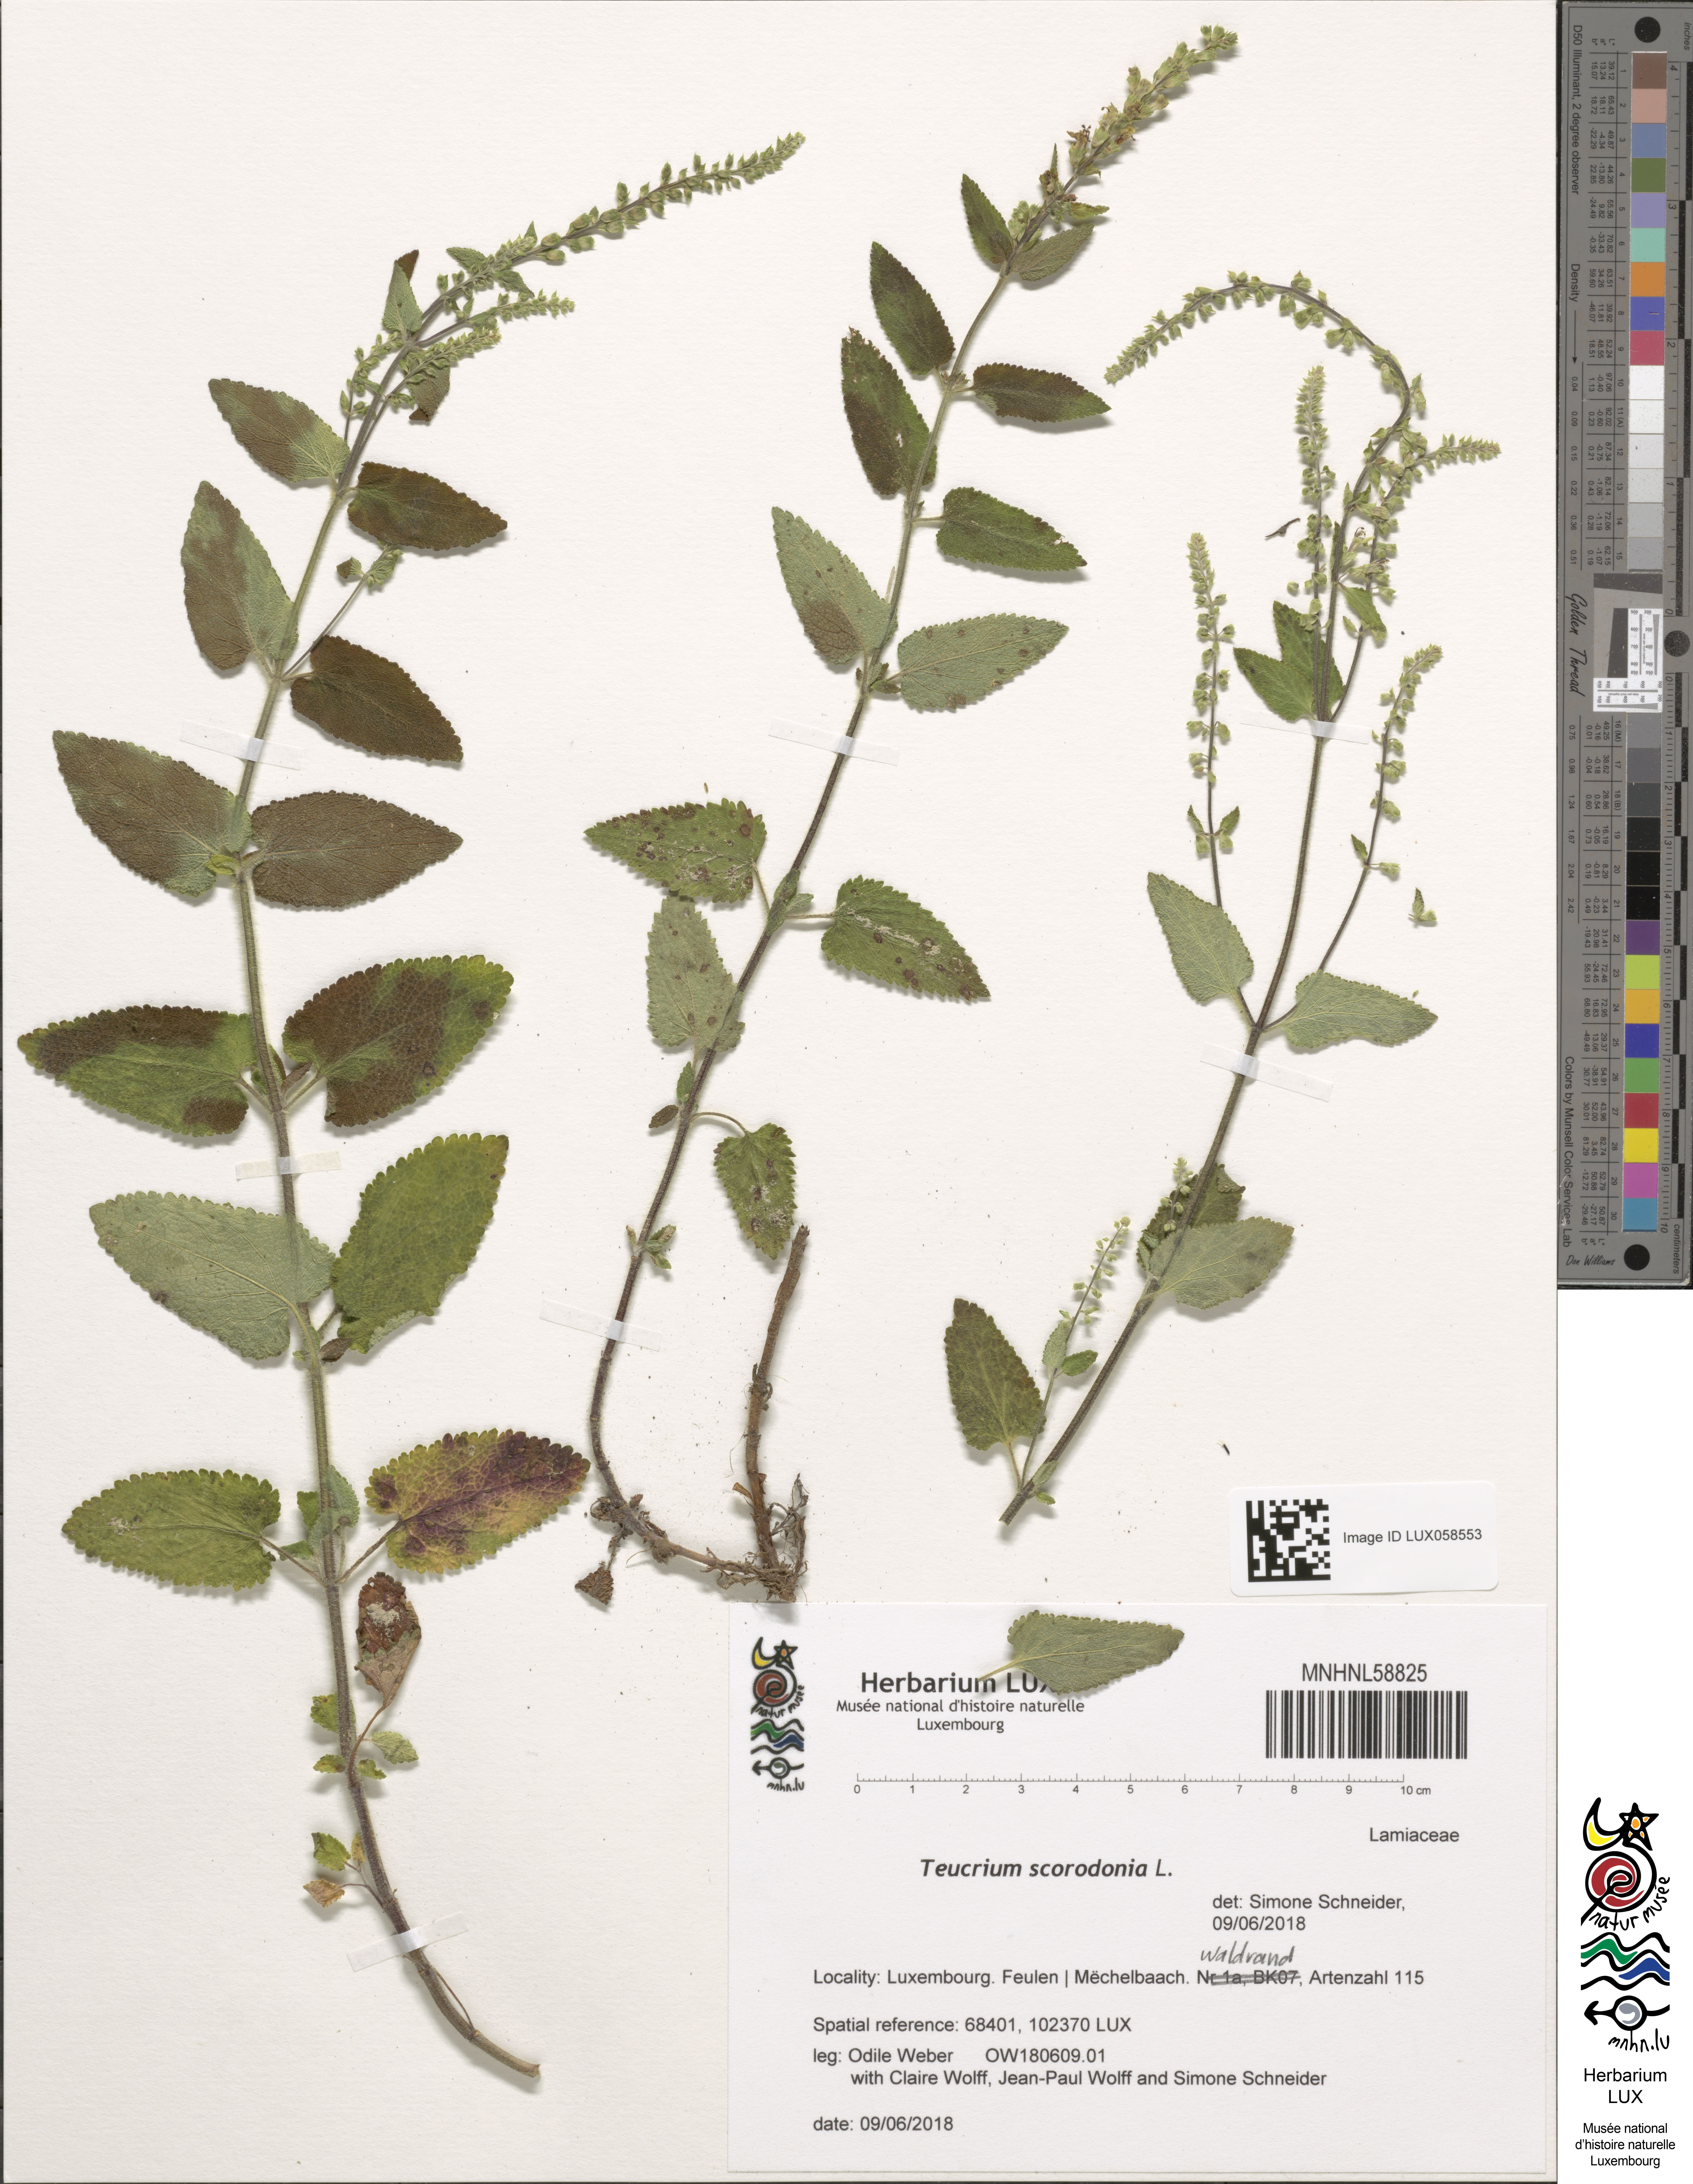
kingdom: Plantae
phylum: Tracheophyta
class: Magnoliopsida
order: Lamiales
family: Lamiaceae
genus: Teucrium
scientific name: Teucrium scorodonia
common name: Woodland germander
